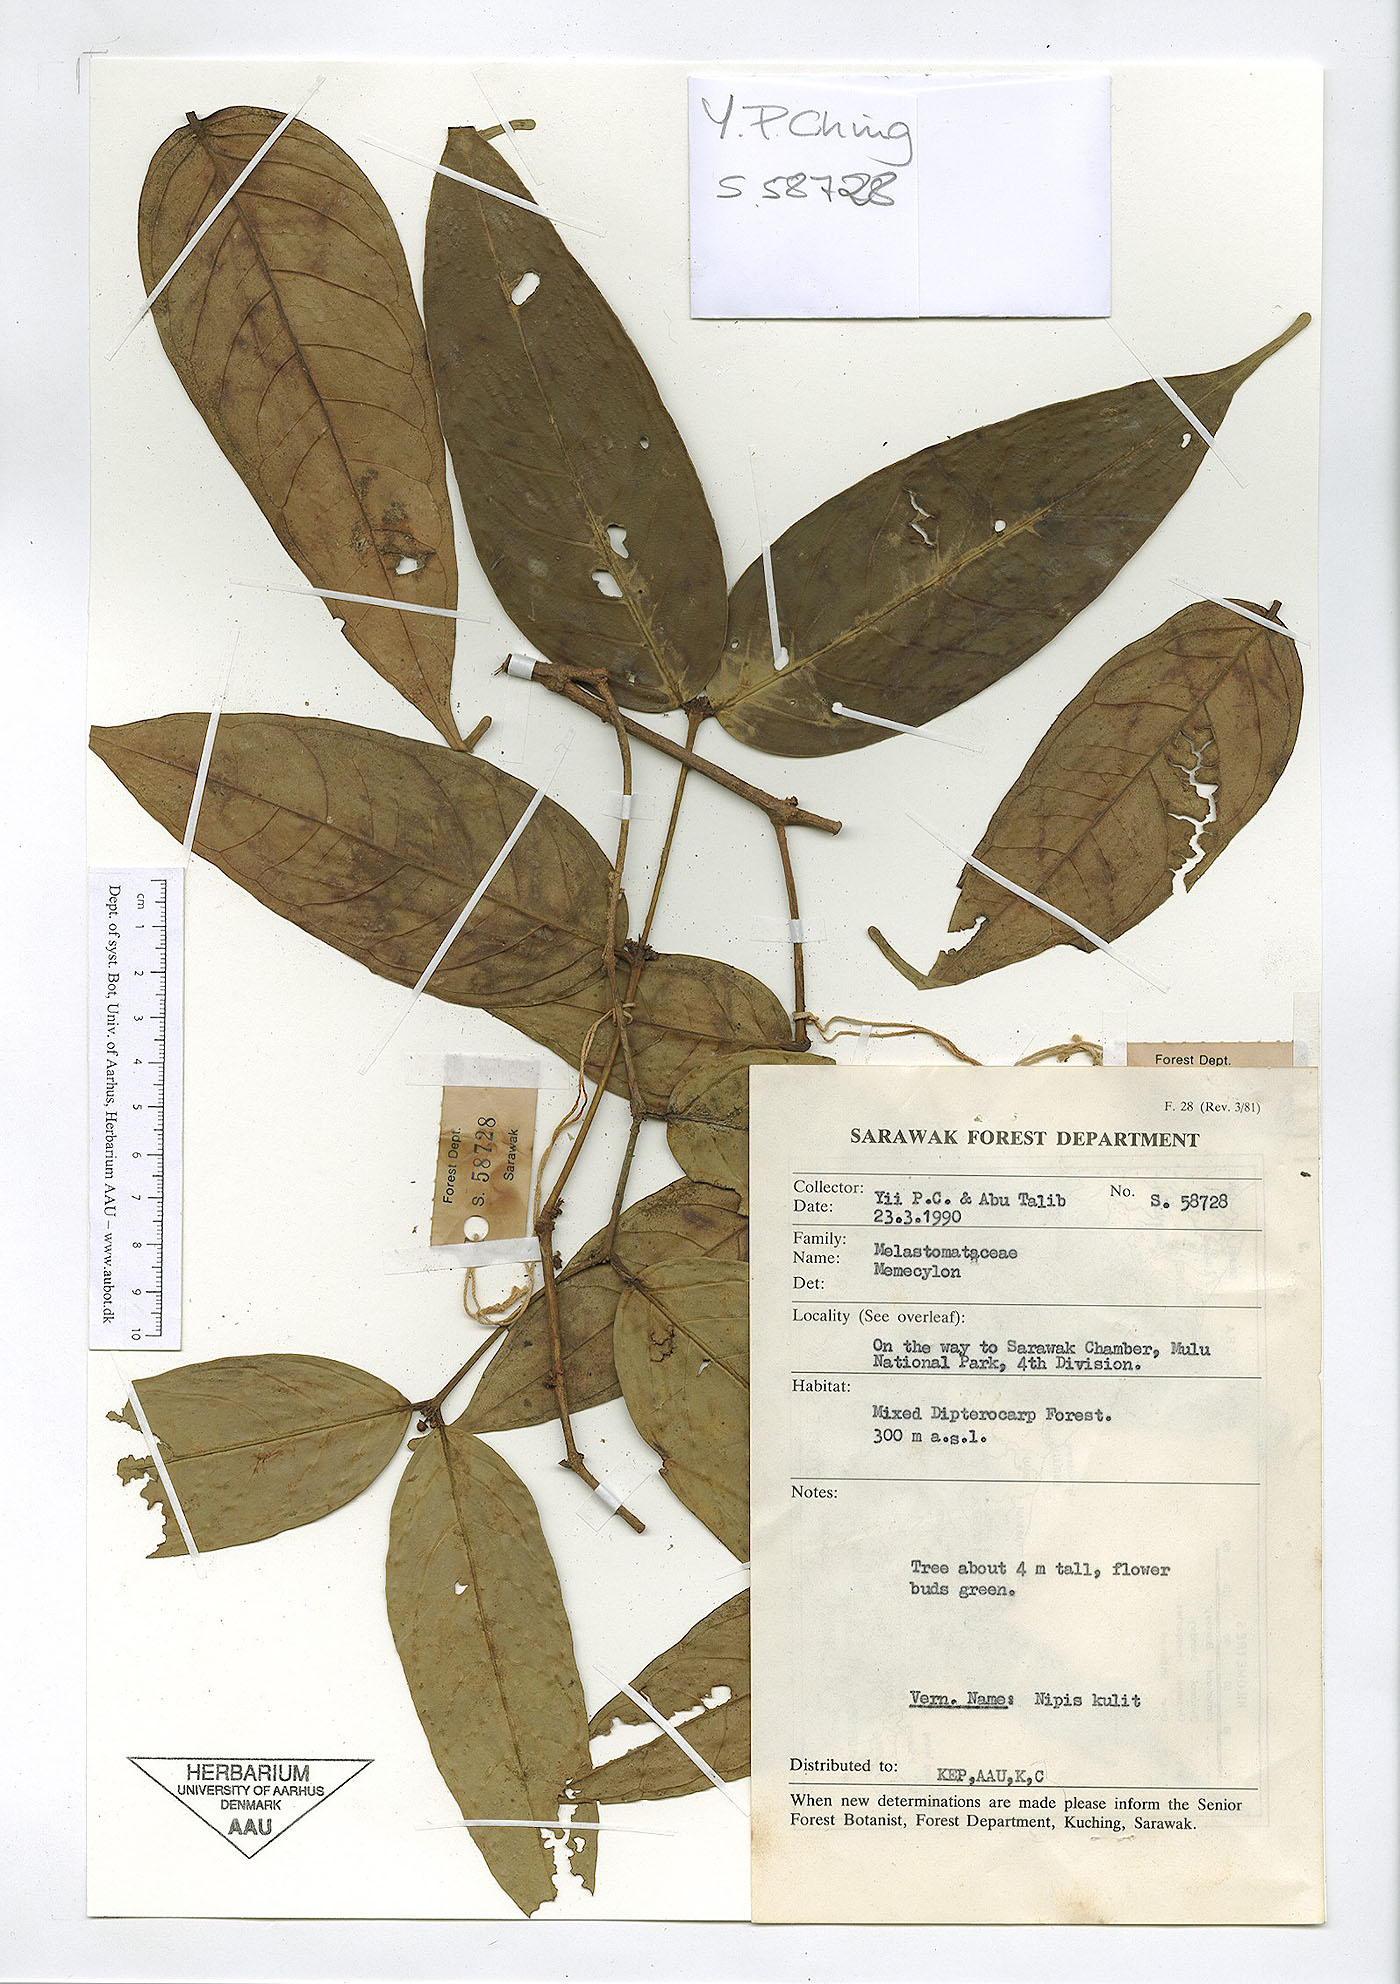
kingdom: Plantae
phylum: Tracheophyta
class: Magnoliopsida
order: Myrtales
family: Melastomataceae
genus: Memecylon
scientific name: Memecylon
